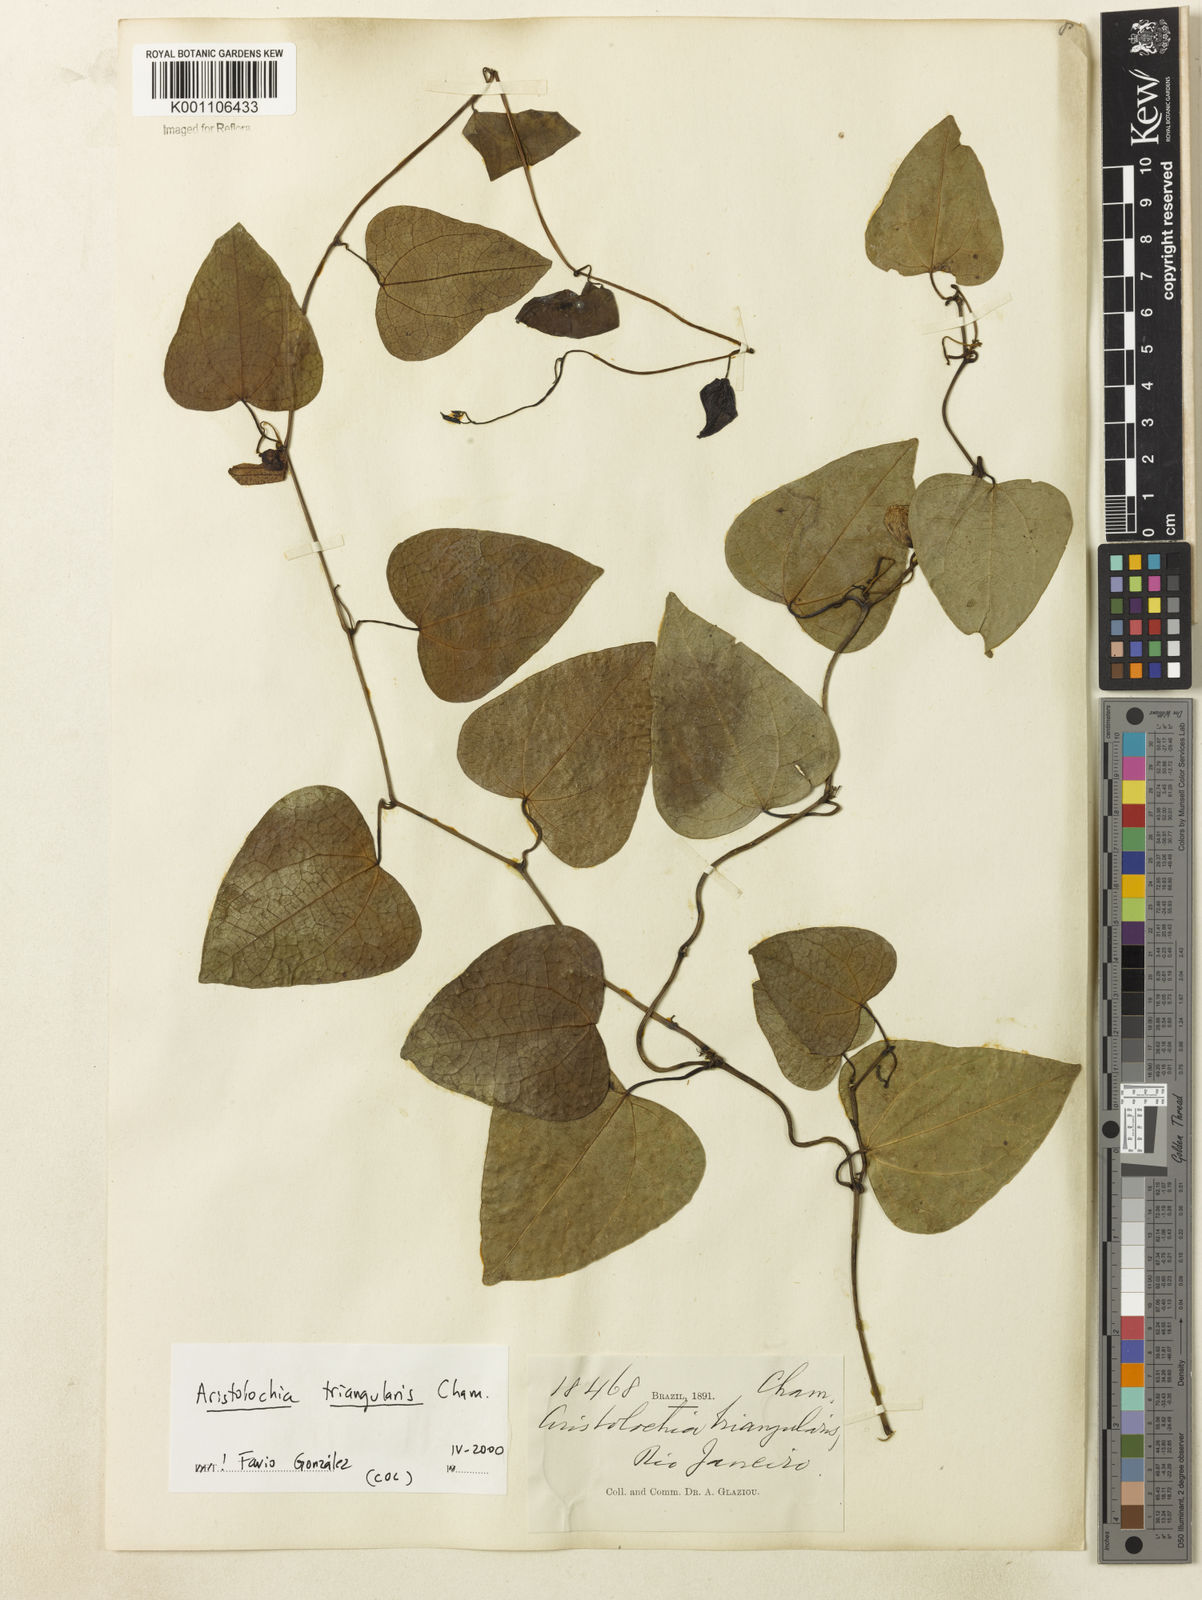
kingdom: Plantae
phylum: Tracheophyta
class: Magnoliopsida
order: Piperales
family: Aristolochiaceae
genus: Aristolochia
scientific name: Aristolochia triangularis
